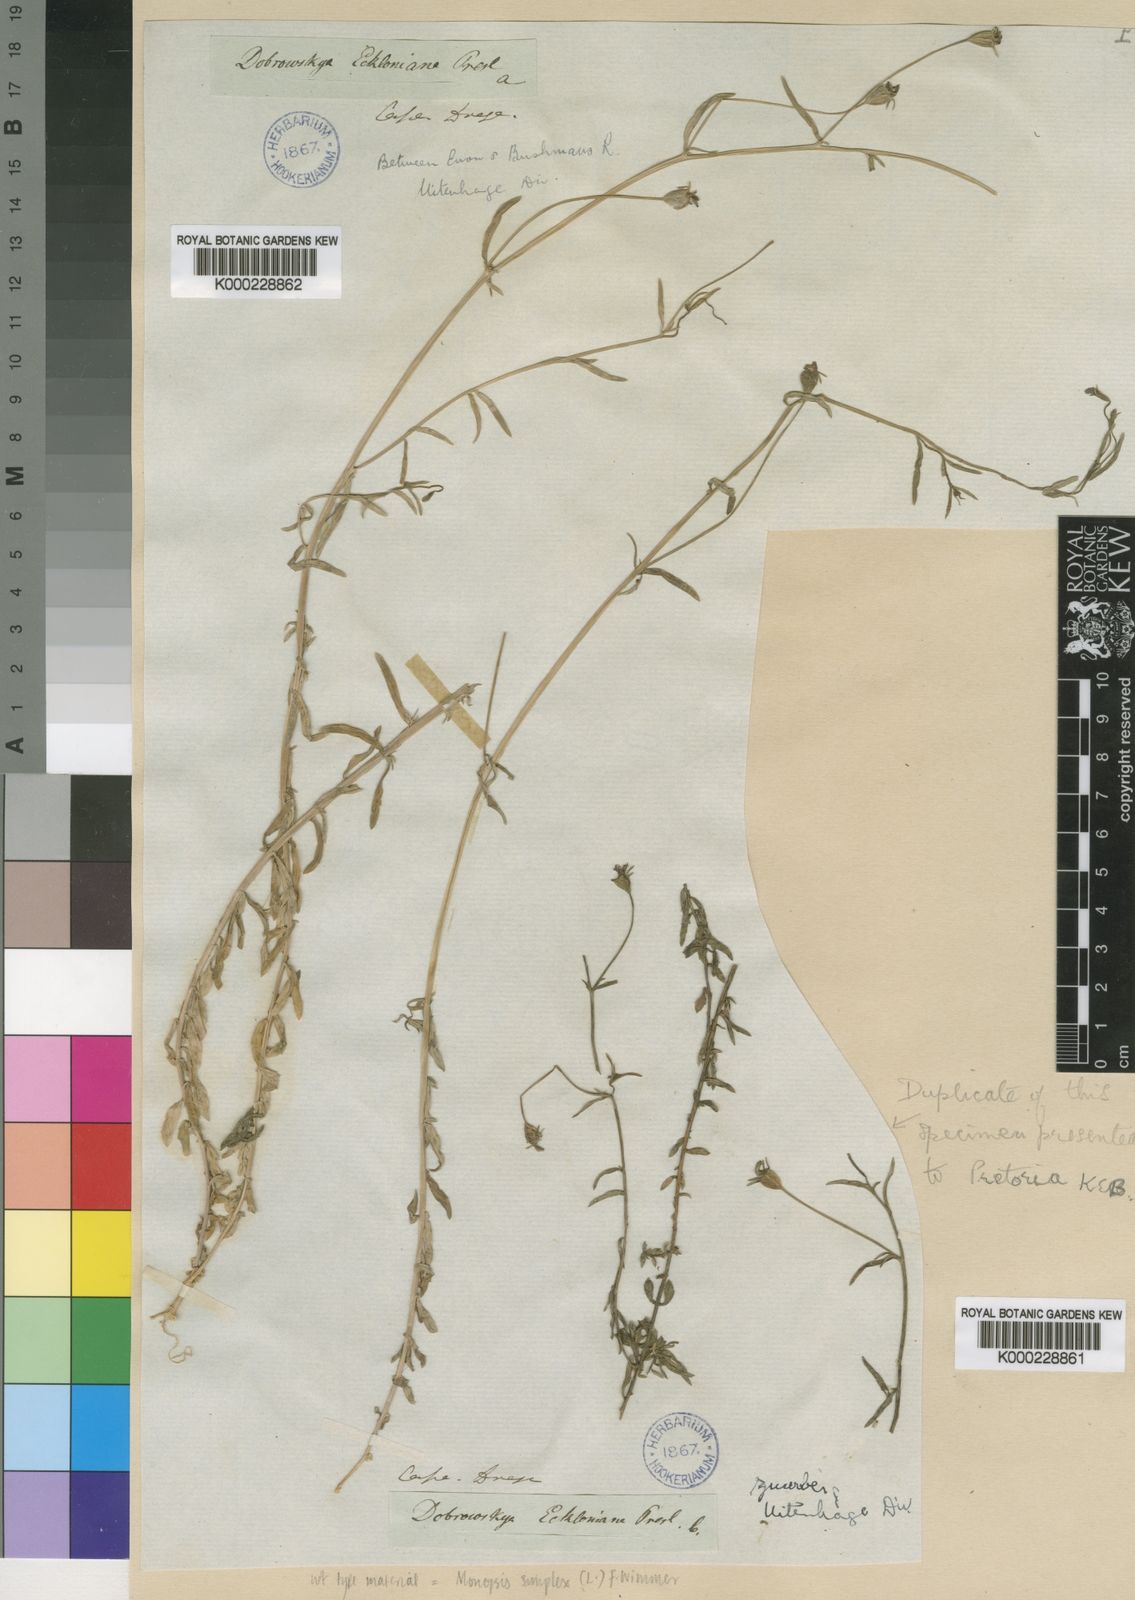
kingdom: Plantae
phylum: Tracheophyta
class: Magnoliopsida
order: Asterales
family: Campanulaceae
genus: Monopsis
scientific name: Monopsis simplex
